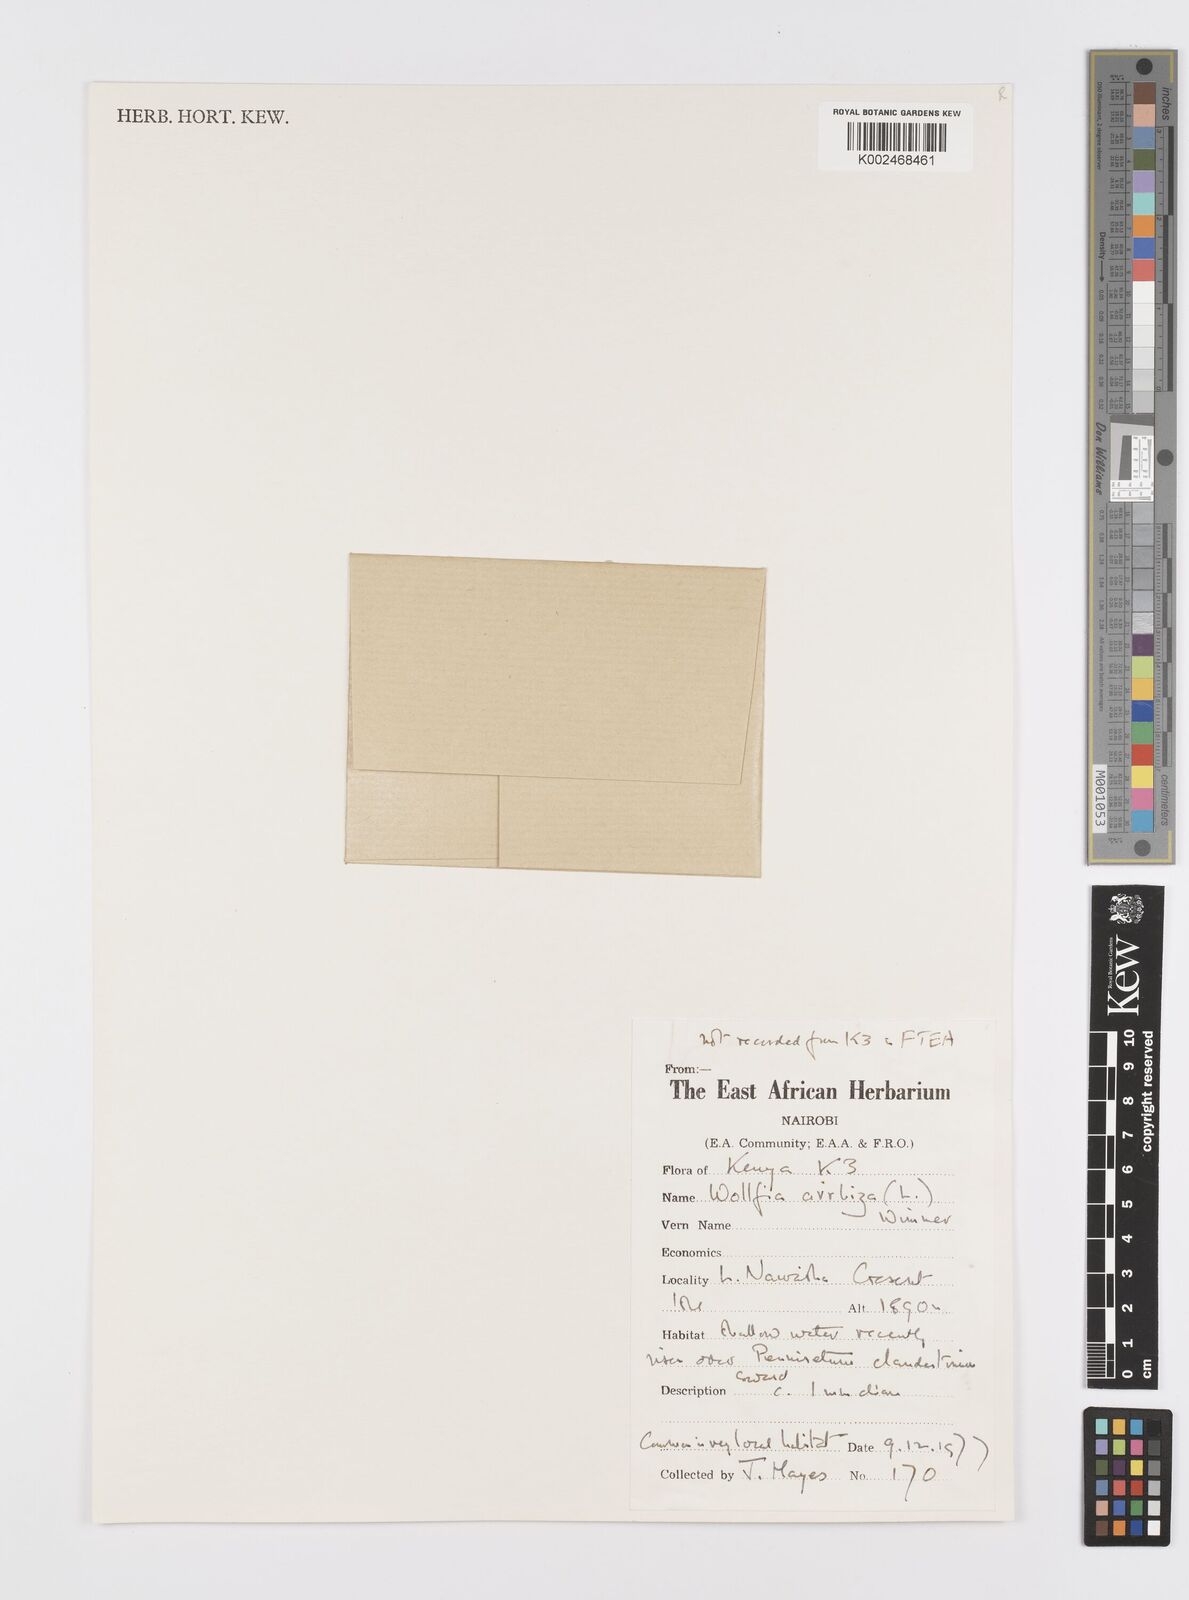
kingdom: Plantae
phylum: Tracheophyta
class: Liliopsida
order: Alismatales
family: Araceae
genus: Wolffia
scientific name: Wolffia arrhiza
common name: Rootless duckweed
